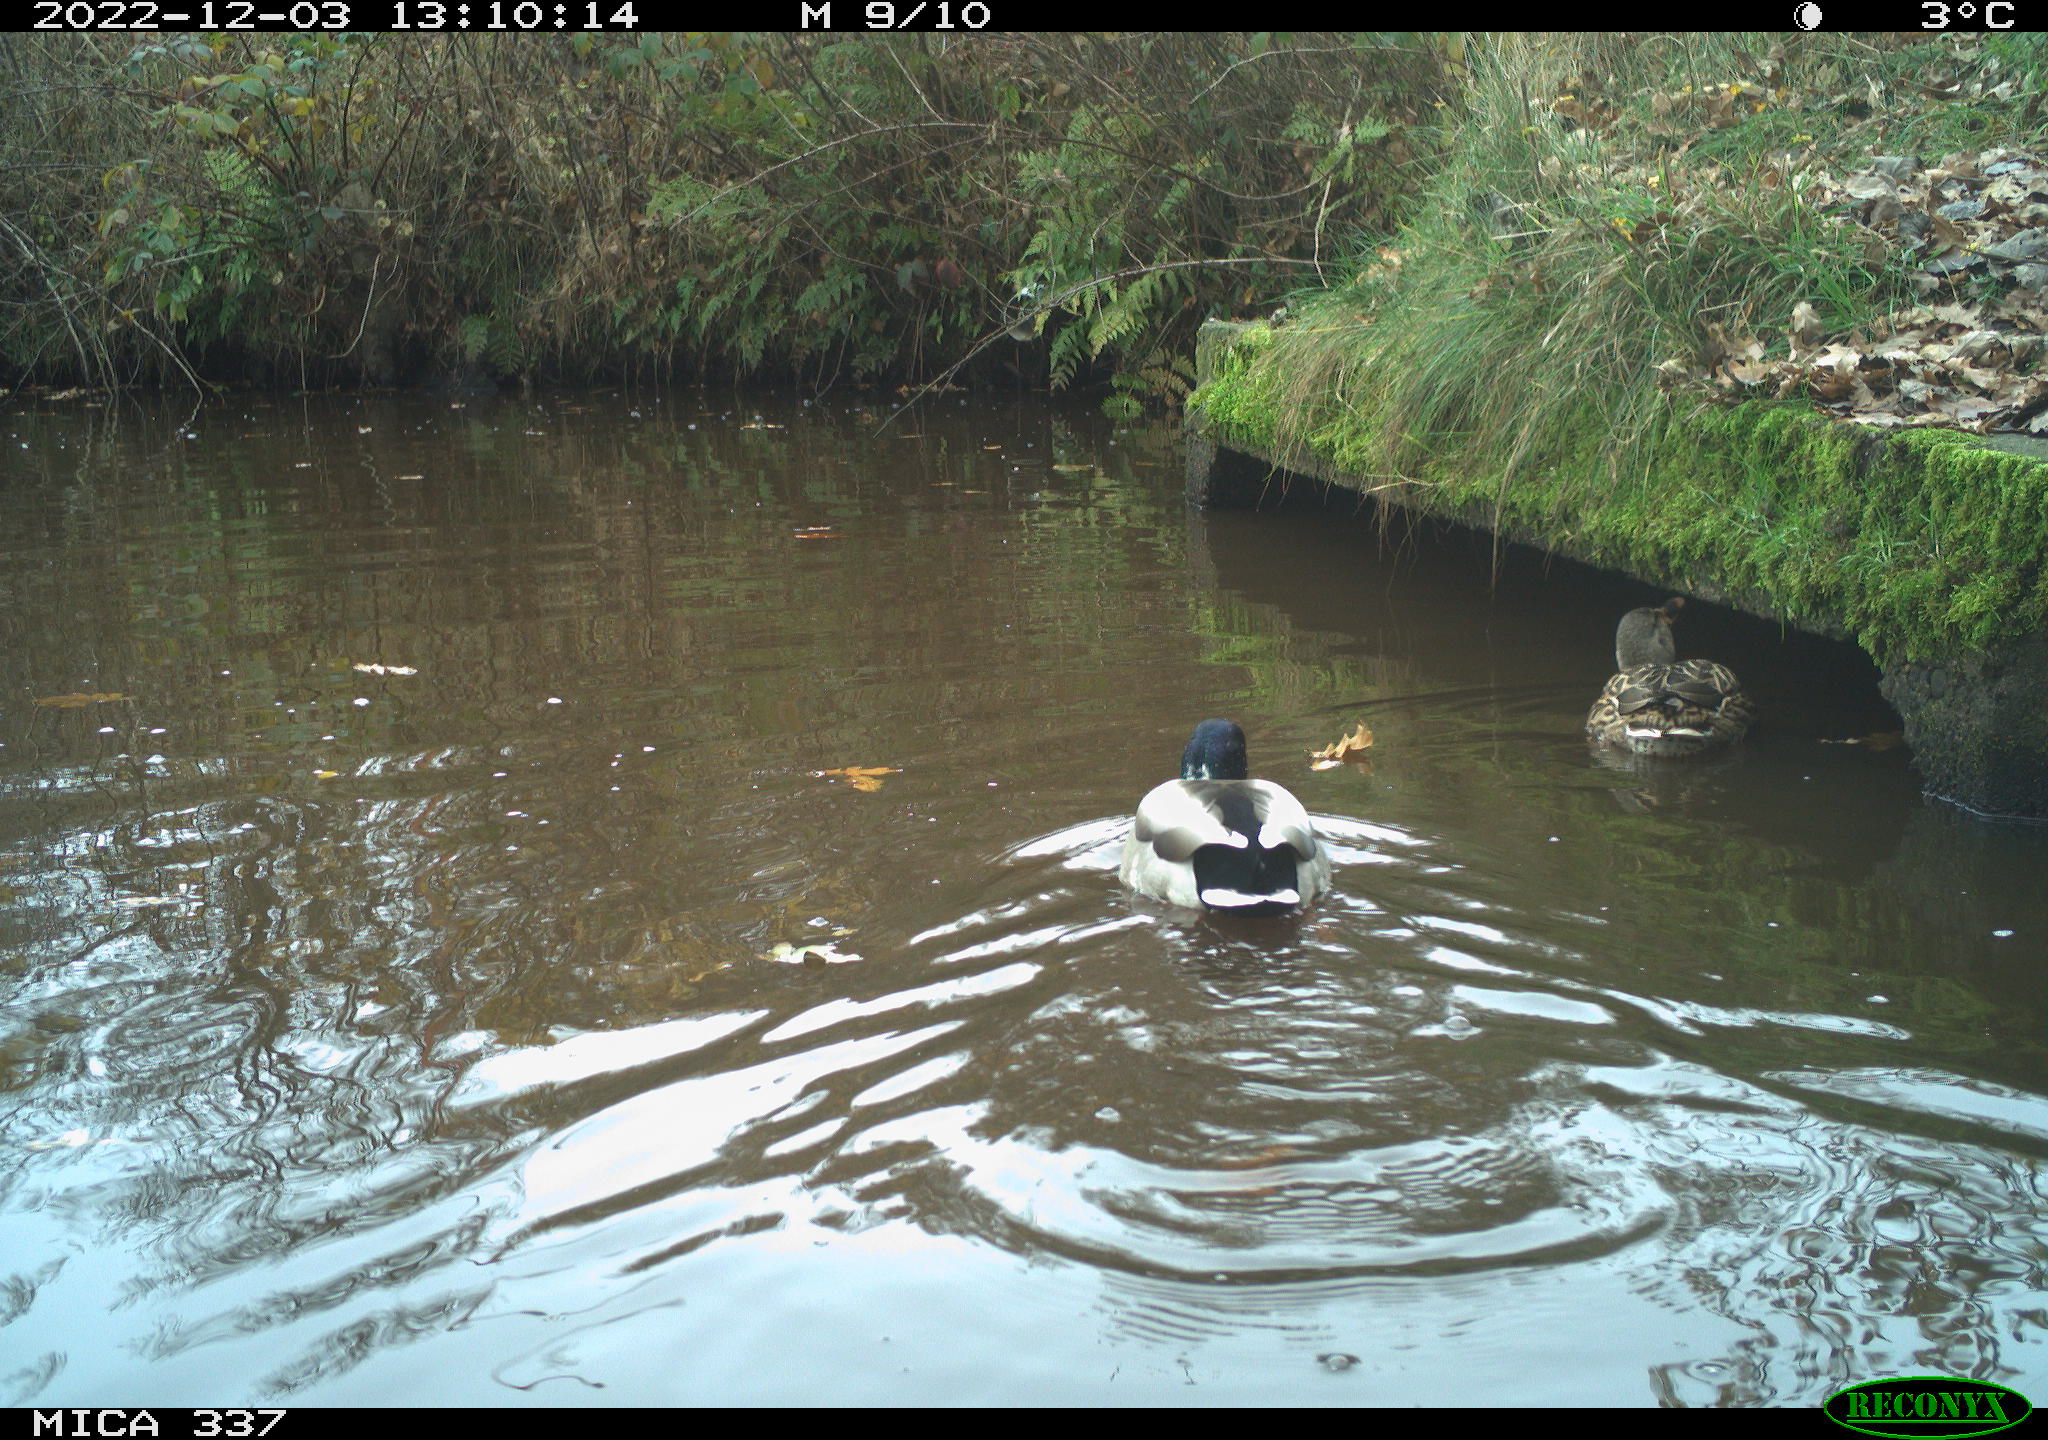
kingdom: Animalia
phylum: Chordata
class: Aves
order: Anseriformes
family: Anatidae
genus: Anas
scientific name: Anas
